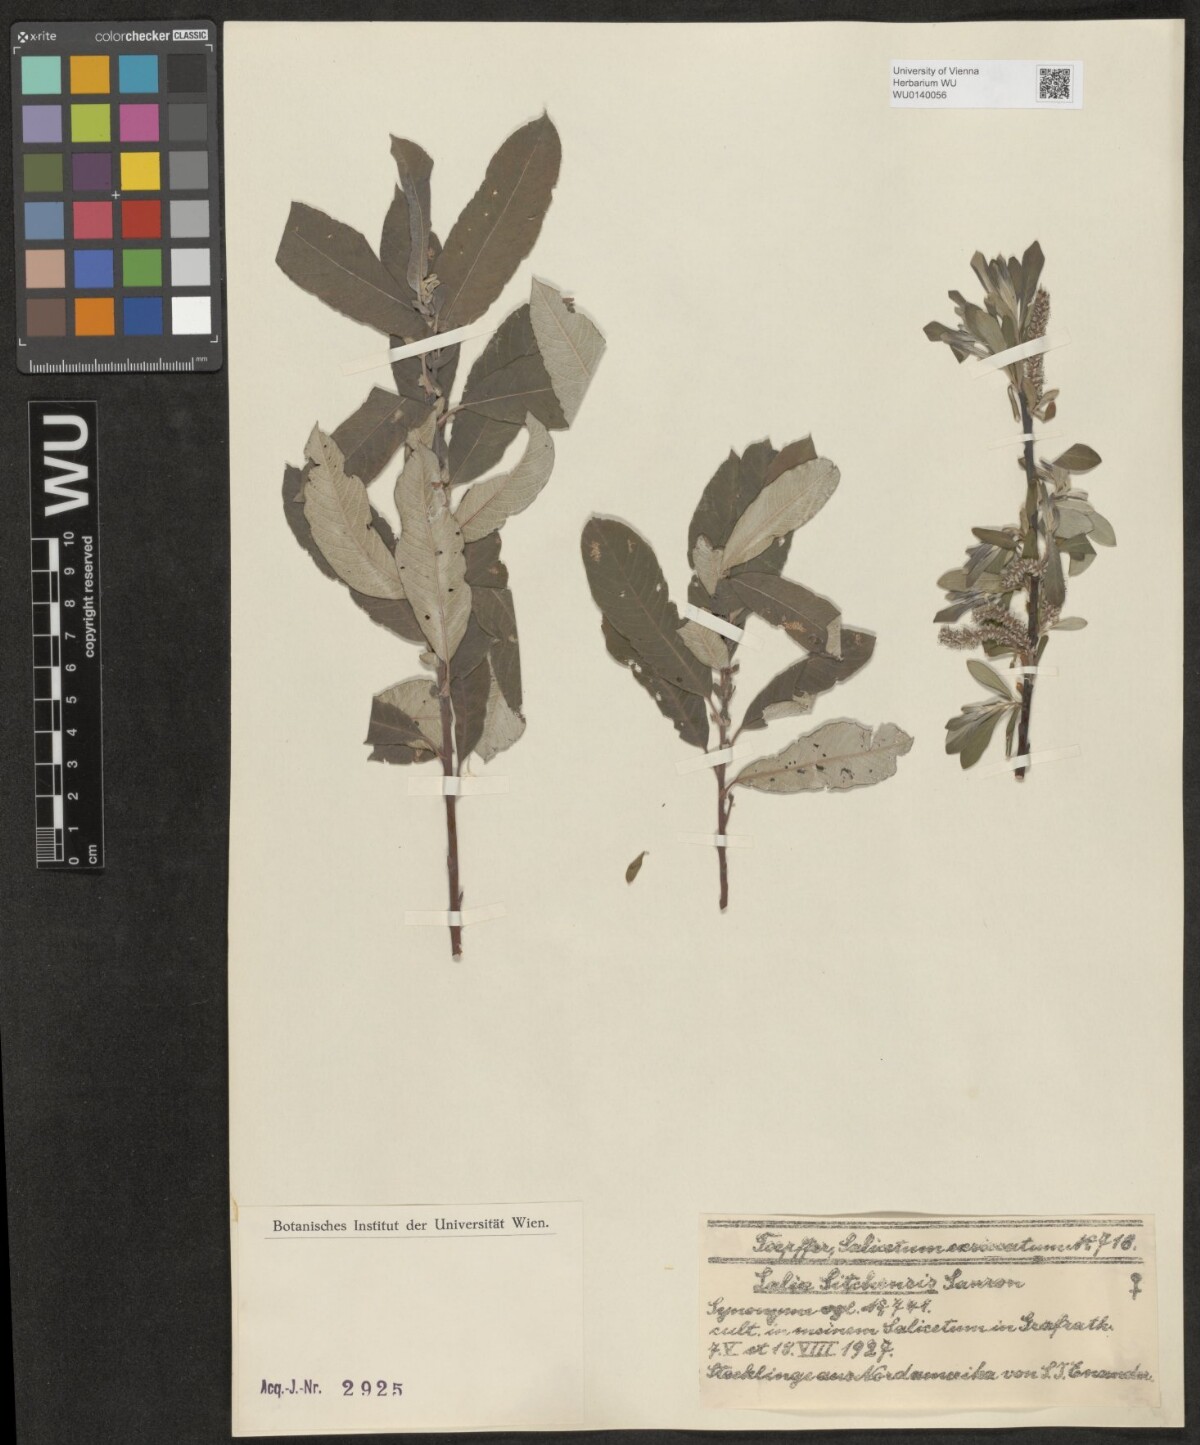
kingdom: Plantae
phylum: Tracheophyta
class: Magnoliopsida
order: Malpighiales
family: Salicaceae
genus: Salix
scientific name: Salix sitchensis
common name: Sitka willow
